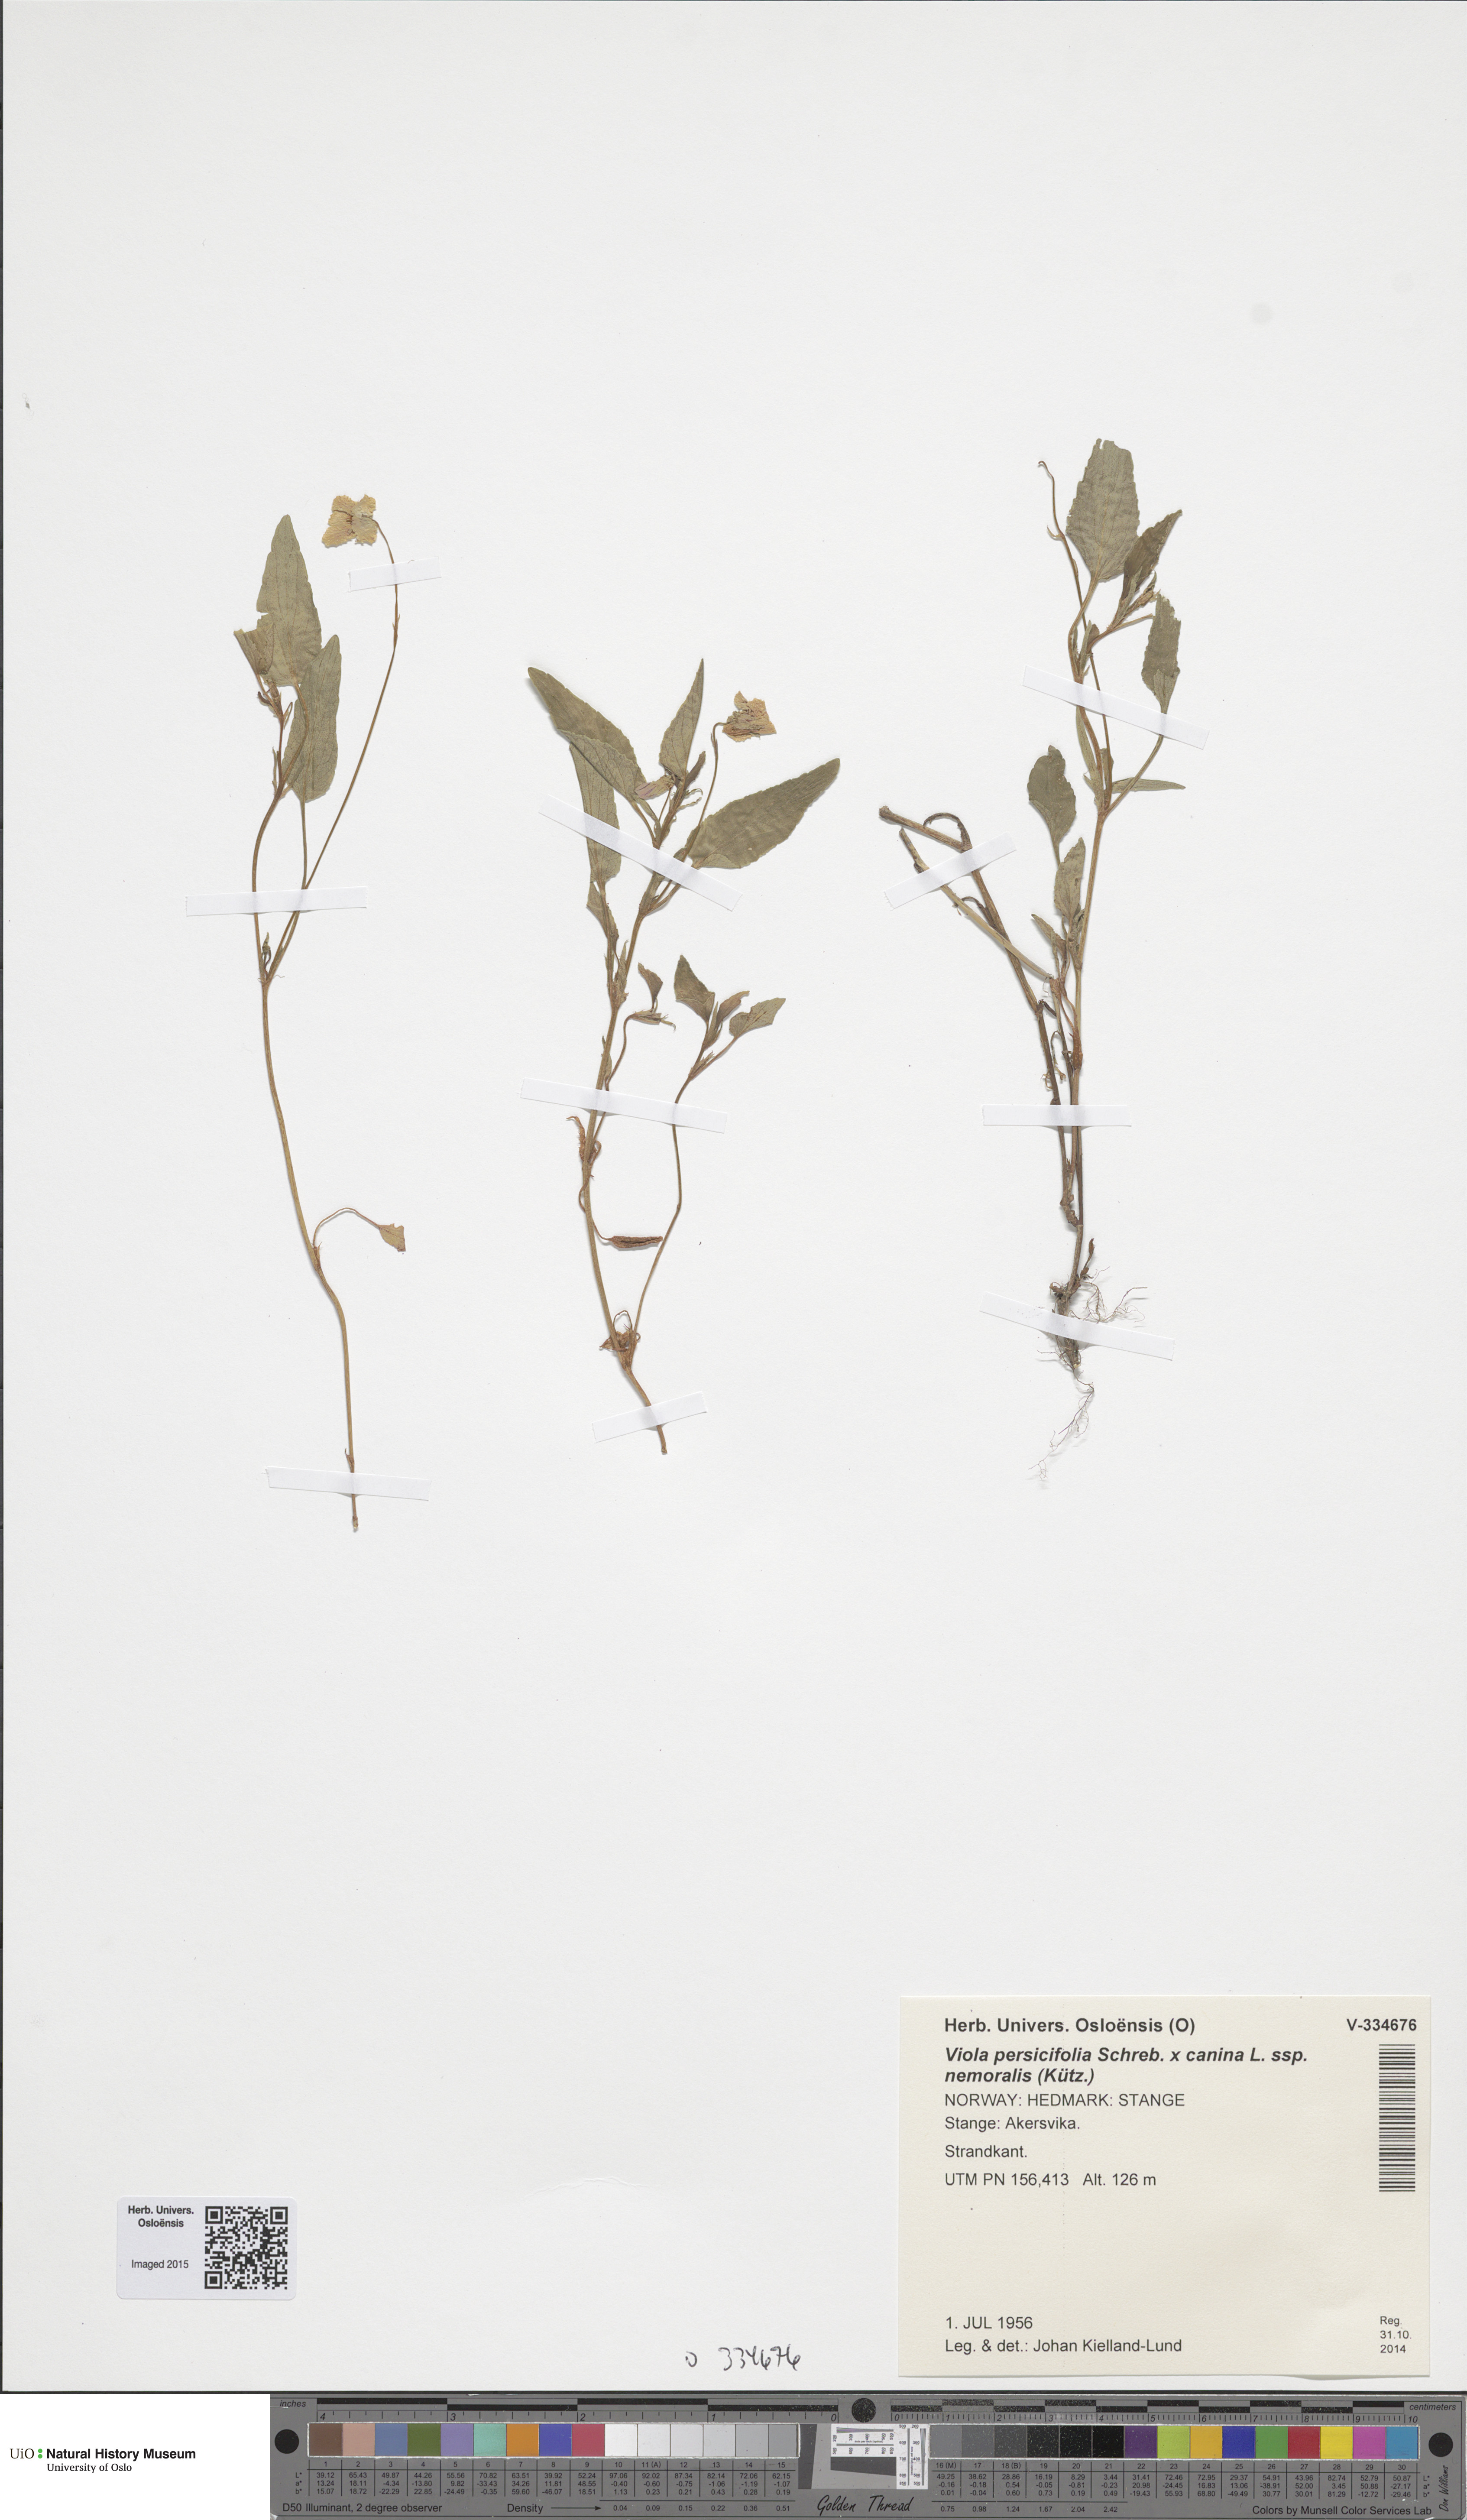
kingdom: Plantae
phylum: Tracheophyta
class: Magnoliopsida
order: Malpighiales
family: Violaceae
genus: Viola
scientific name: Viola stagnina
